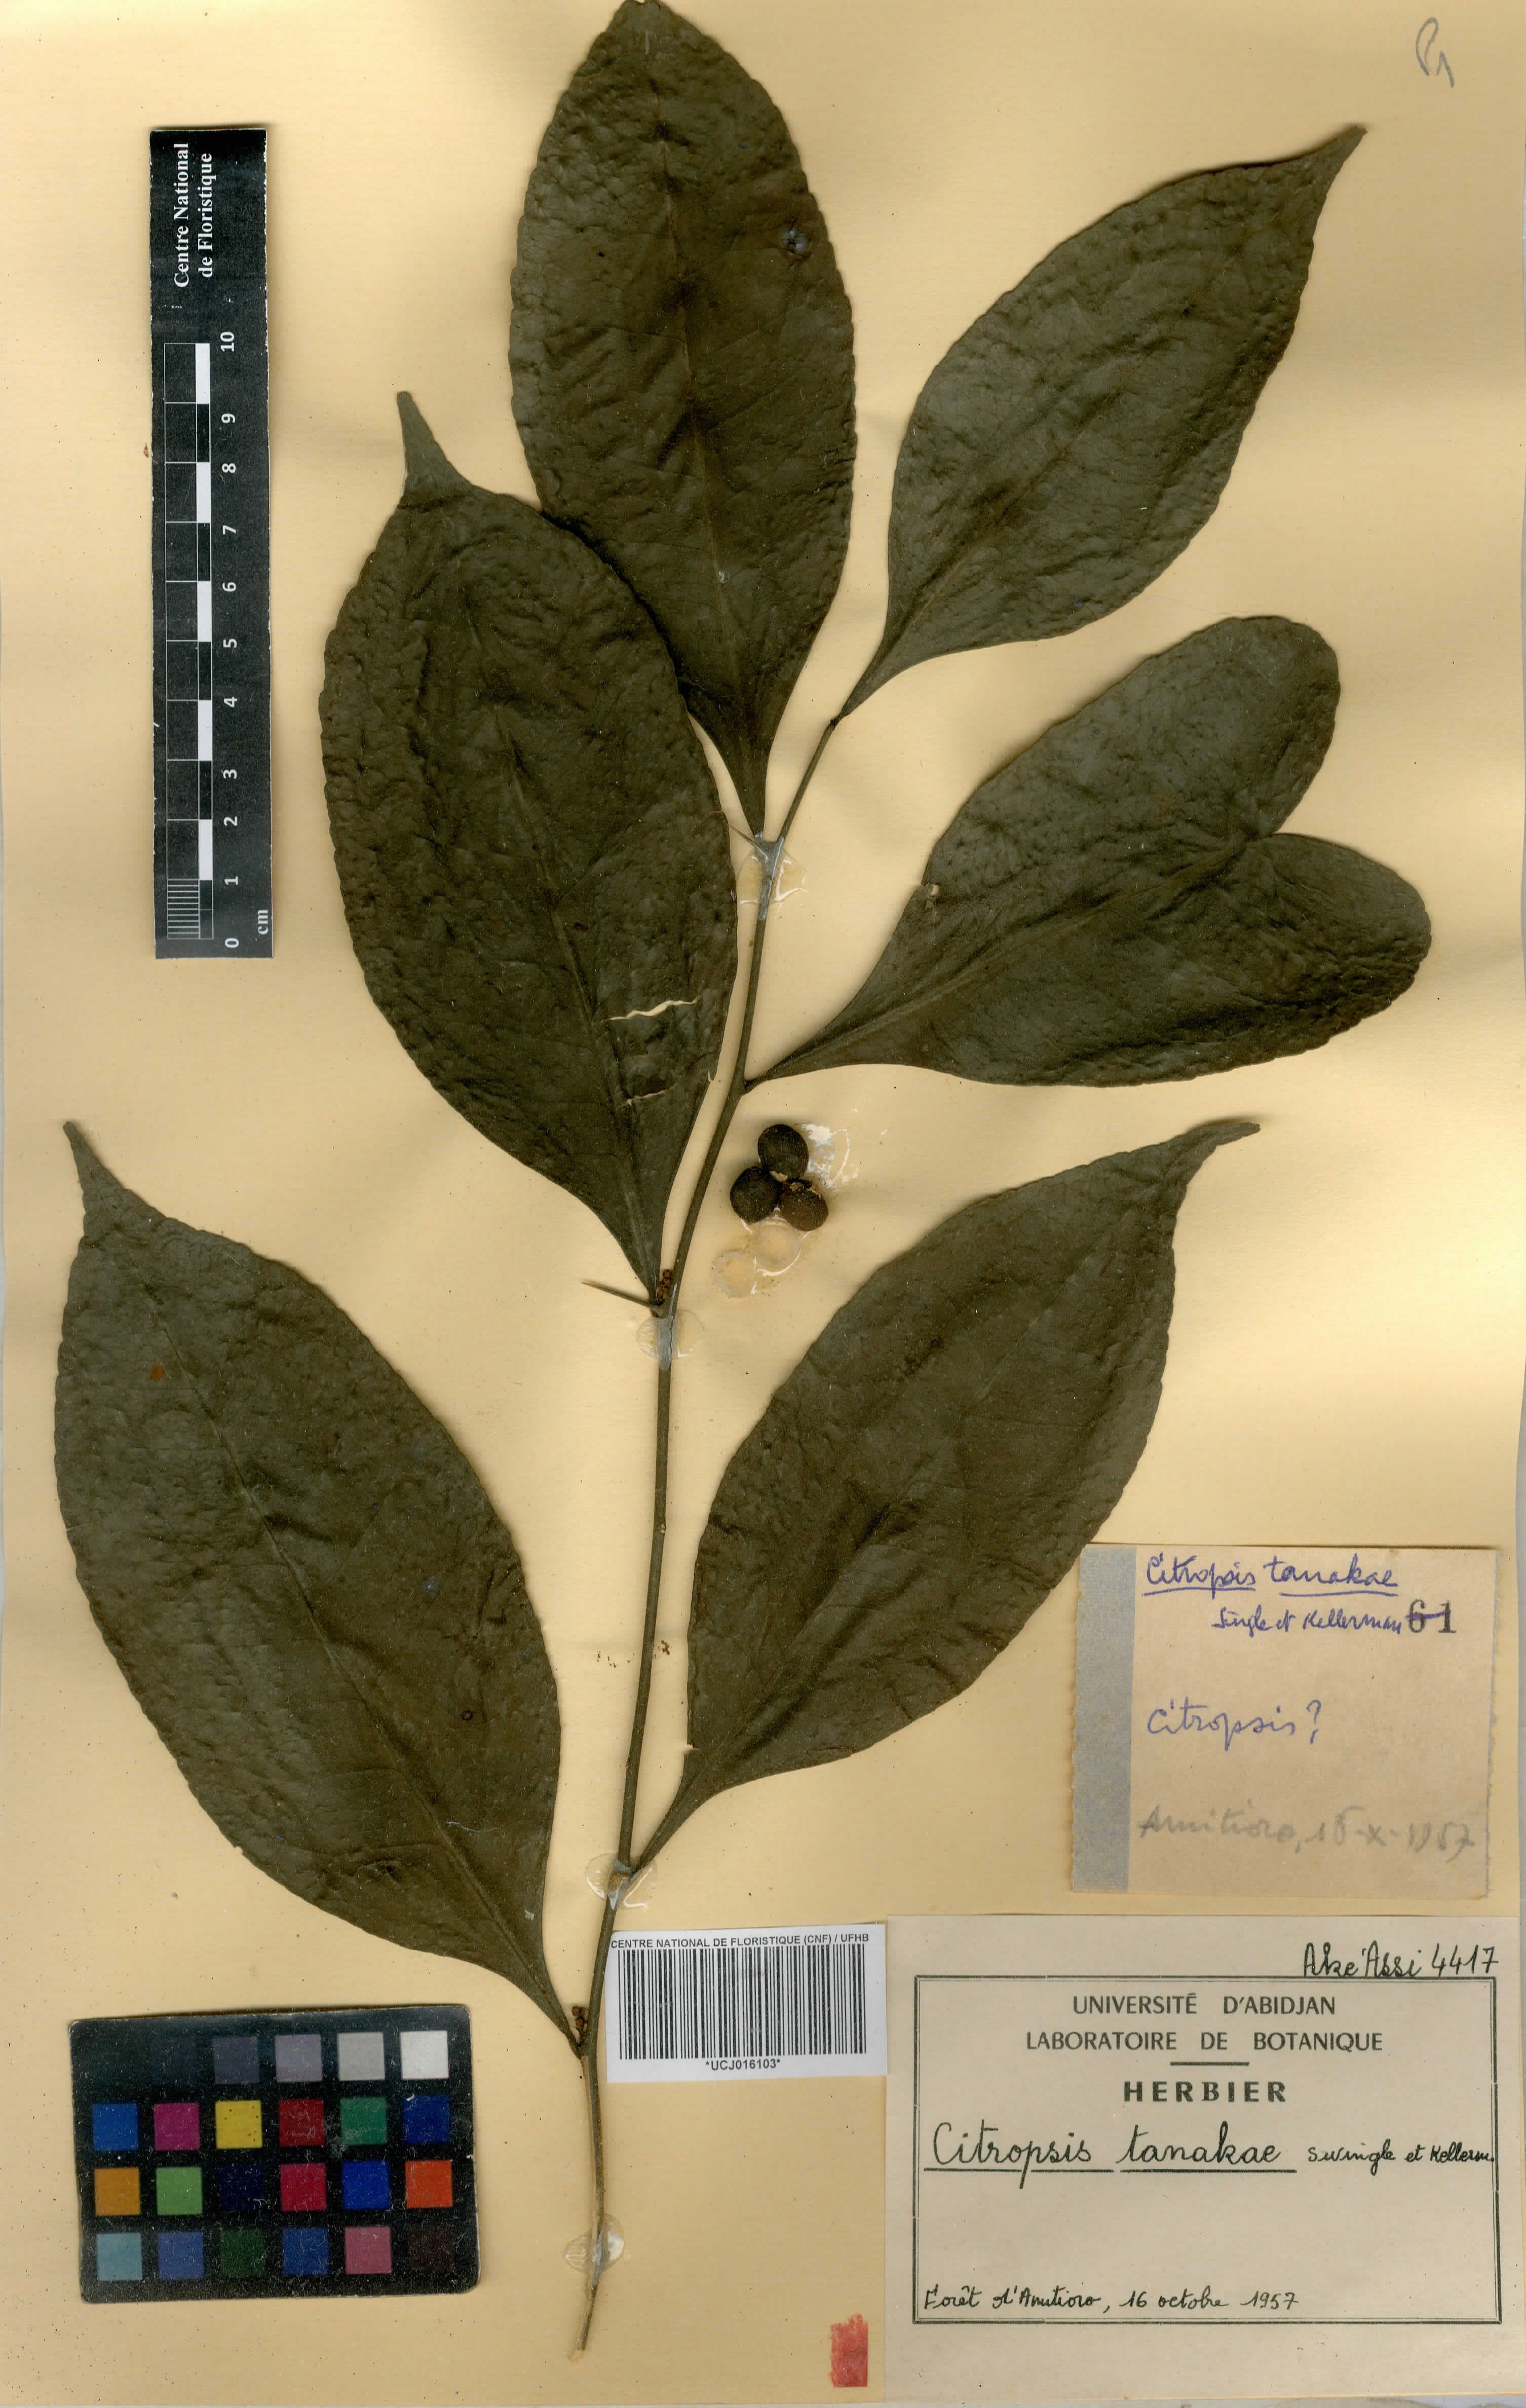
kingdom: Plantae
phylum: Tracheophyta
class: Magnoliopsida
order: Sapindales
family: Rutaceae
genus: Citropsis
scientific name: Citropsis gabunensis
